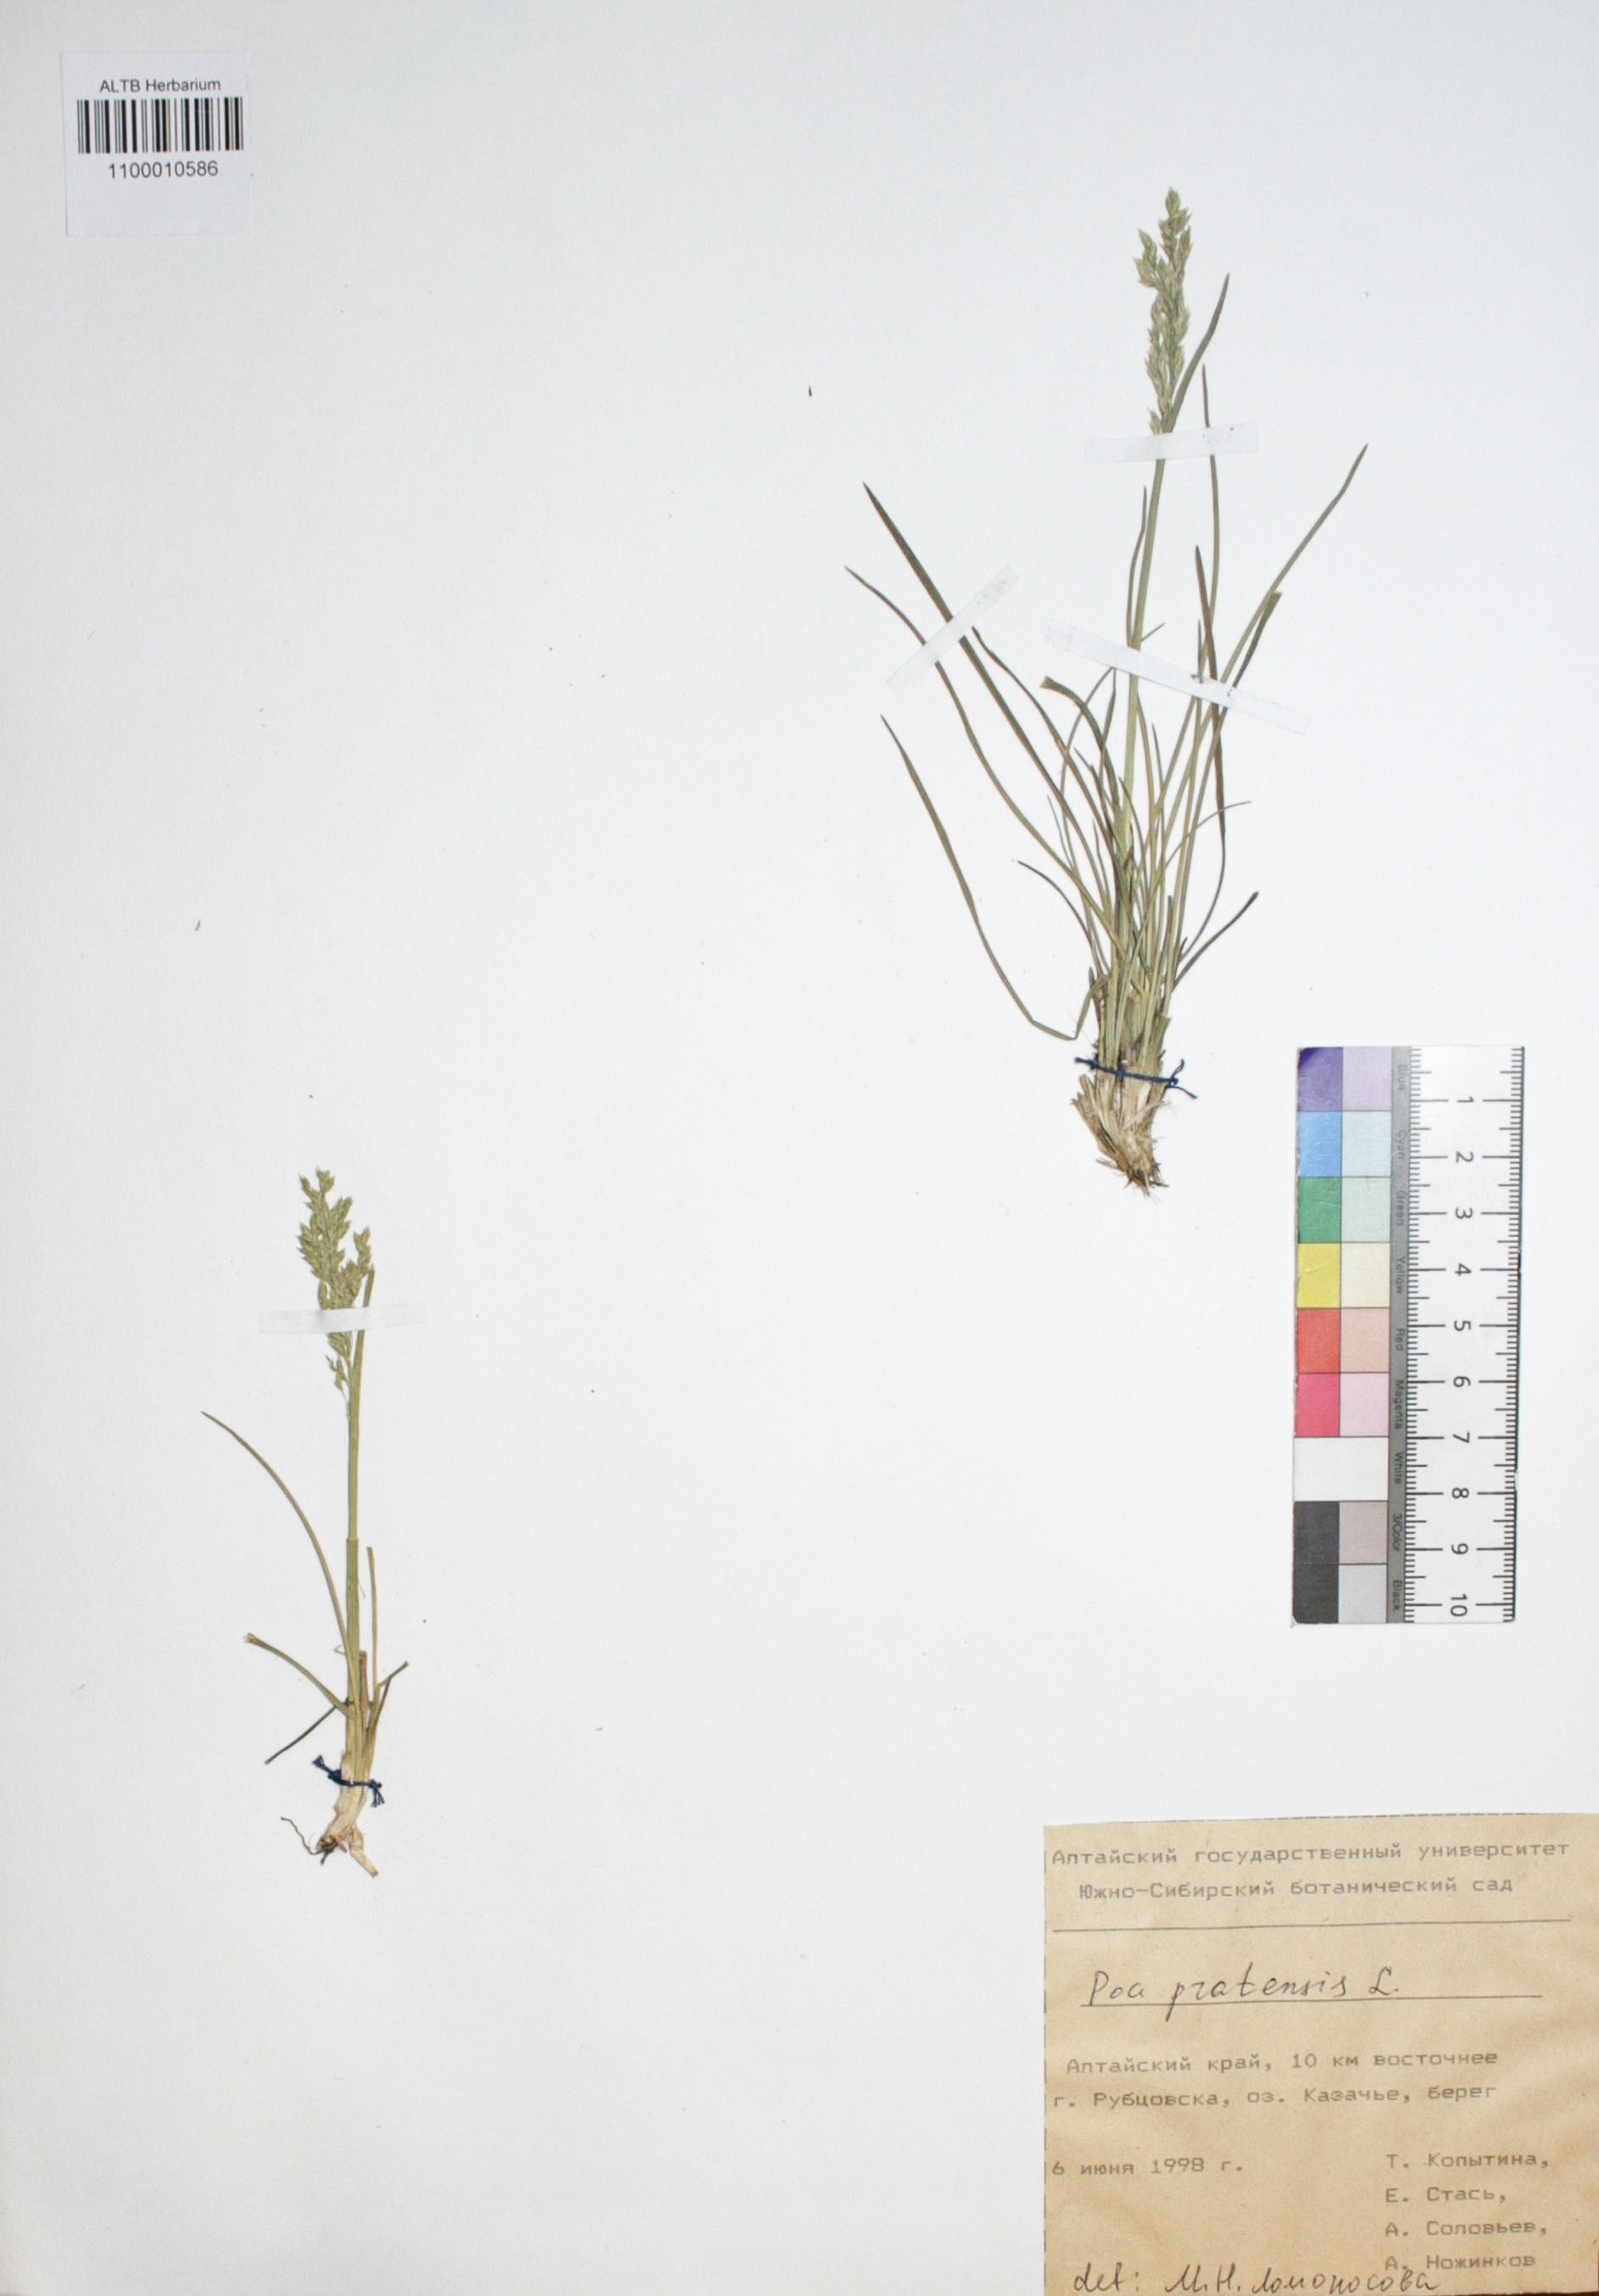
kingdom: Plantae
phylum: Tracheophyta
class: Liliopsida
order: Poales
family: Poaceae
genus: Poa
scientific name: Poa pratensis
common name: Kentucky bluegrass
